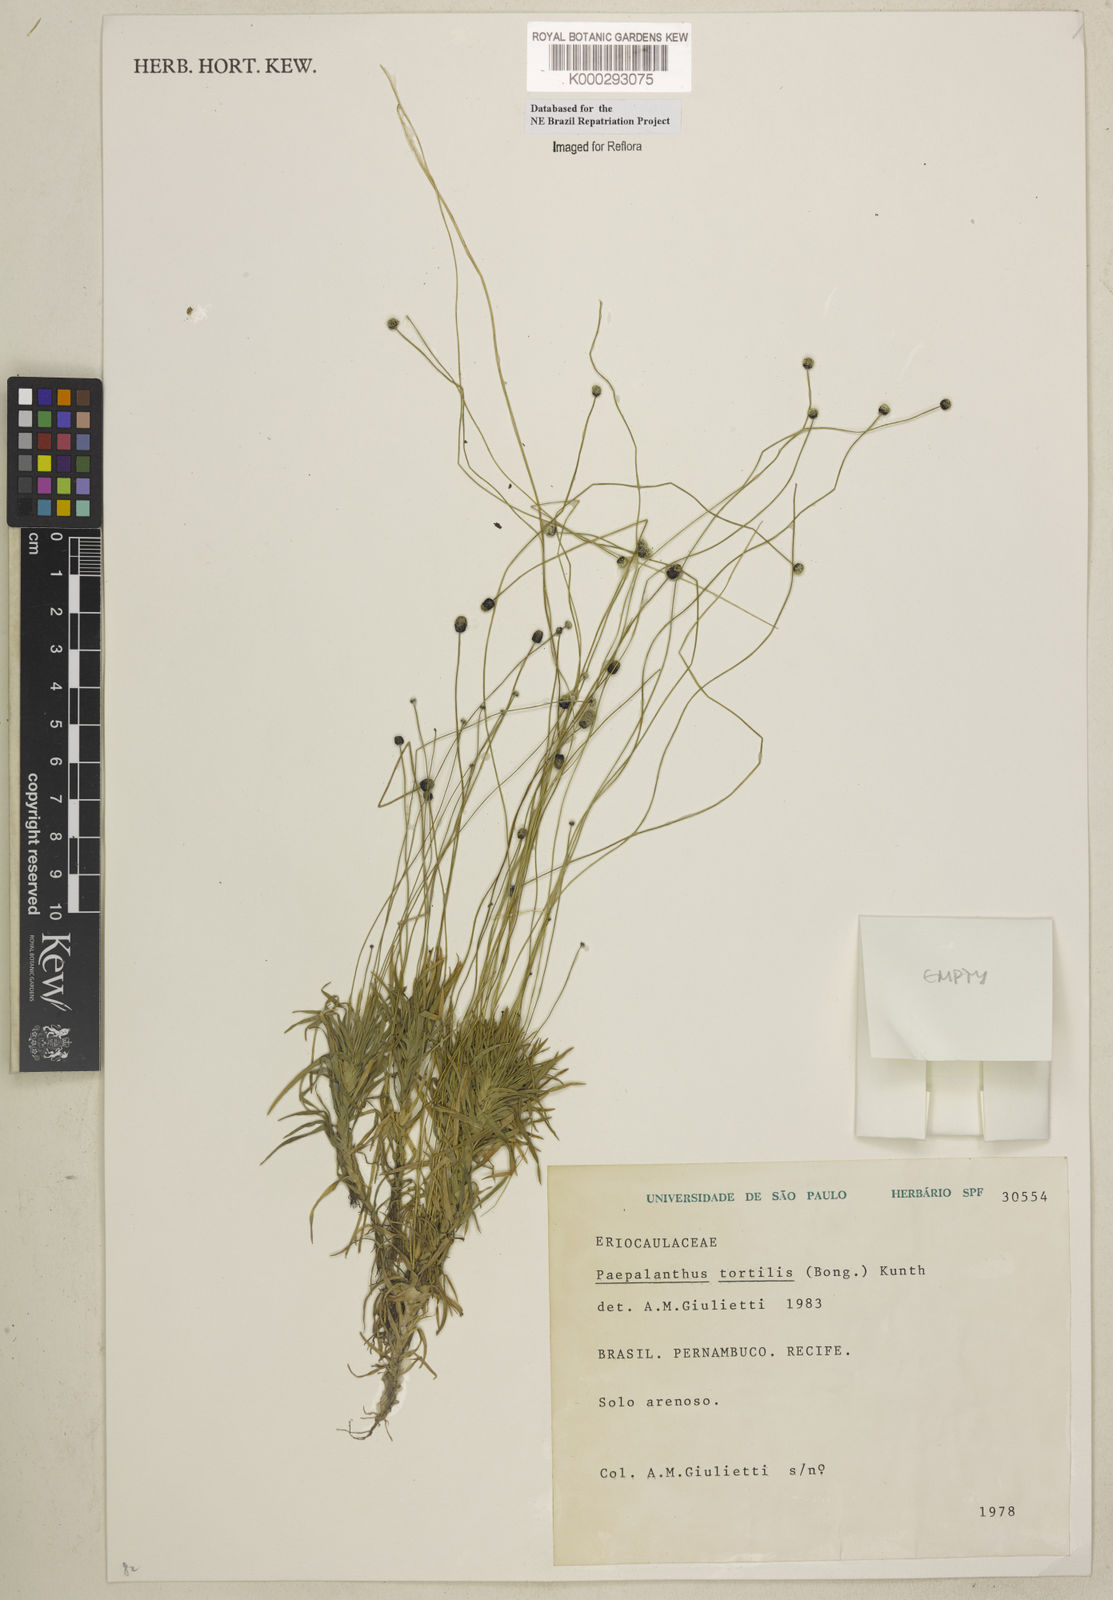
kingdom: Plantae
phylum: Tracheophyta
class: Liliopsida
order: Poales
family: Eriocaulaceae
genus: Paepalanthus
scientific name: Paepalanthus
